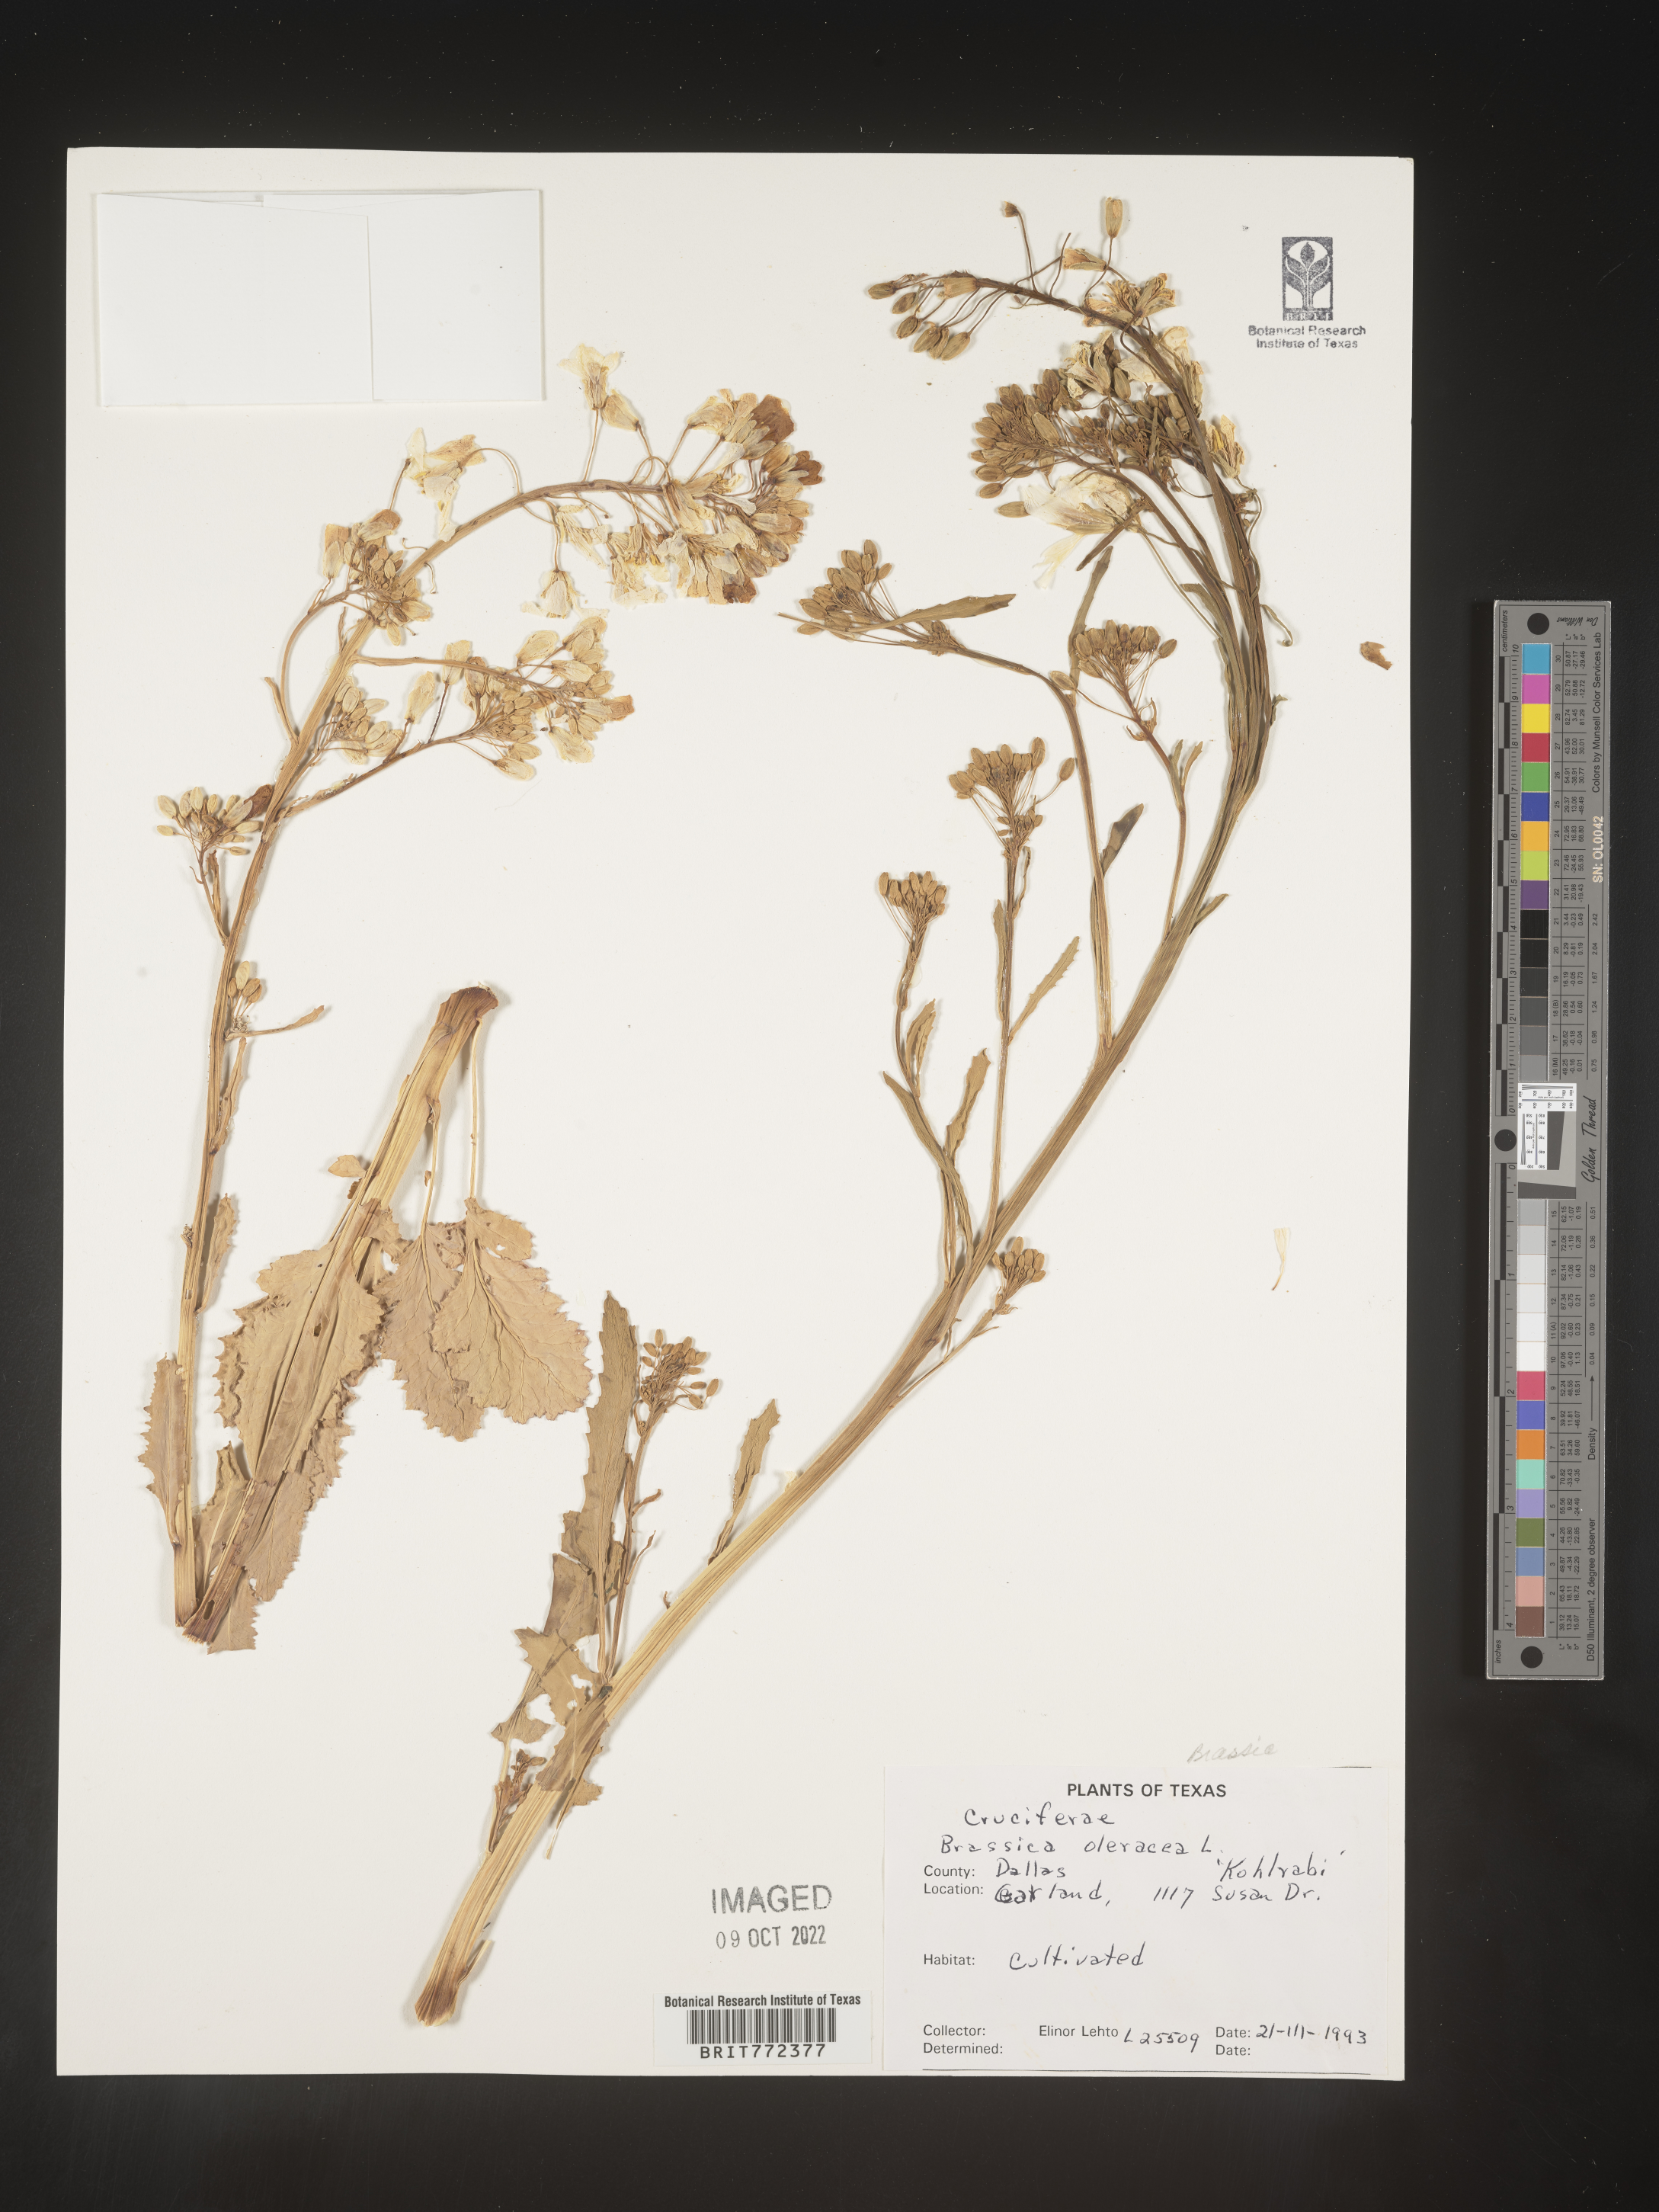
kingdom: Plantae
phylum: Tracheophyta
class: Magnoliopsida
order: Brassicales
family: Brassicaceae
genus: Brassica
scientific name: Brassica
